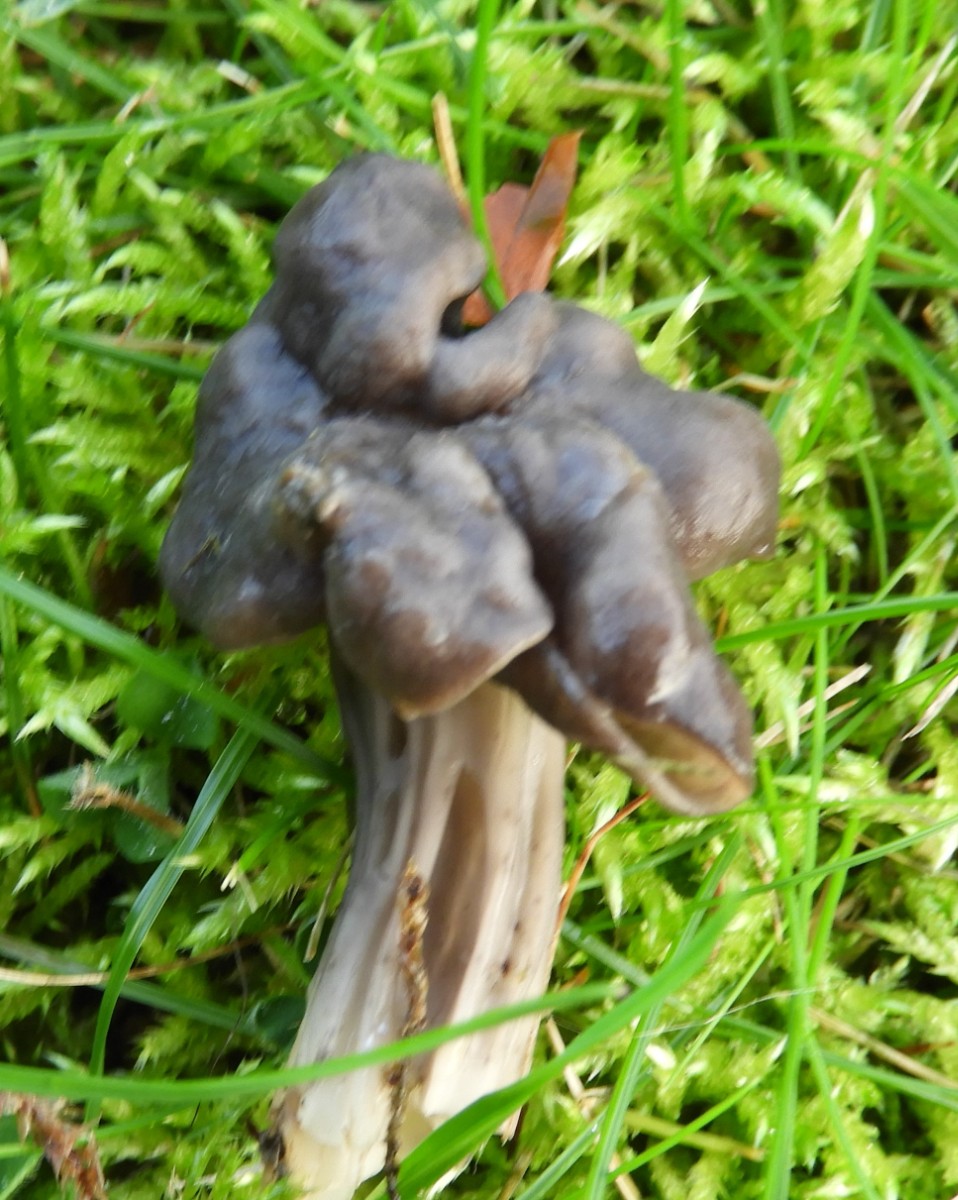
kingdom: Fungi
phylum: Ascomycota
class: Pezizomycetes
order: Pezizales
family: Helvellaceae
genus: Helvella
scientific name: Helvella lacunosa
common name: grubet foldhat
